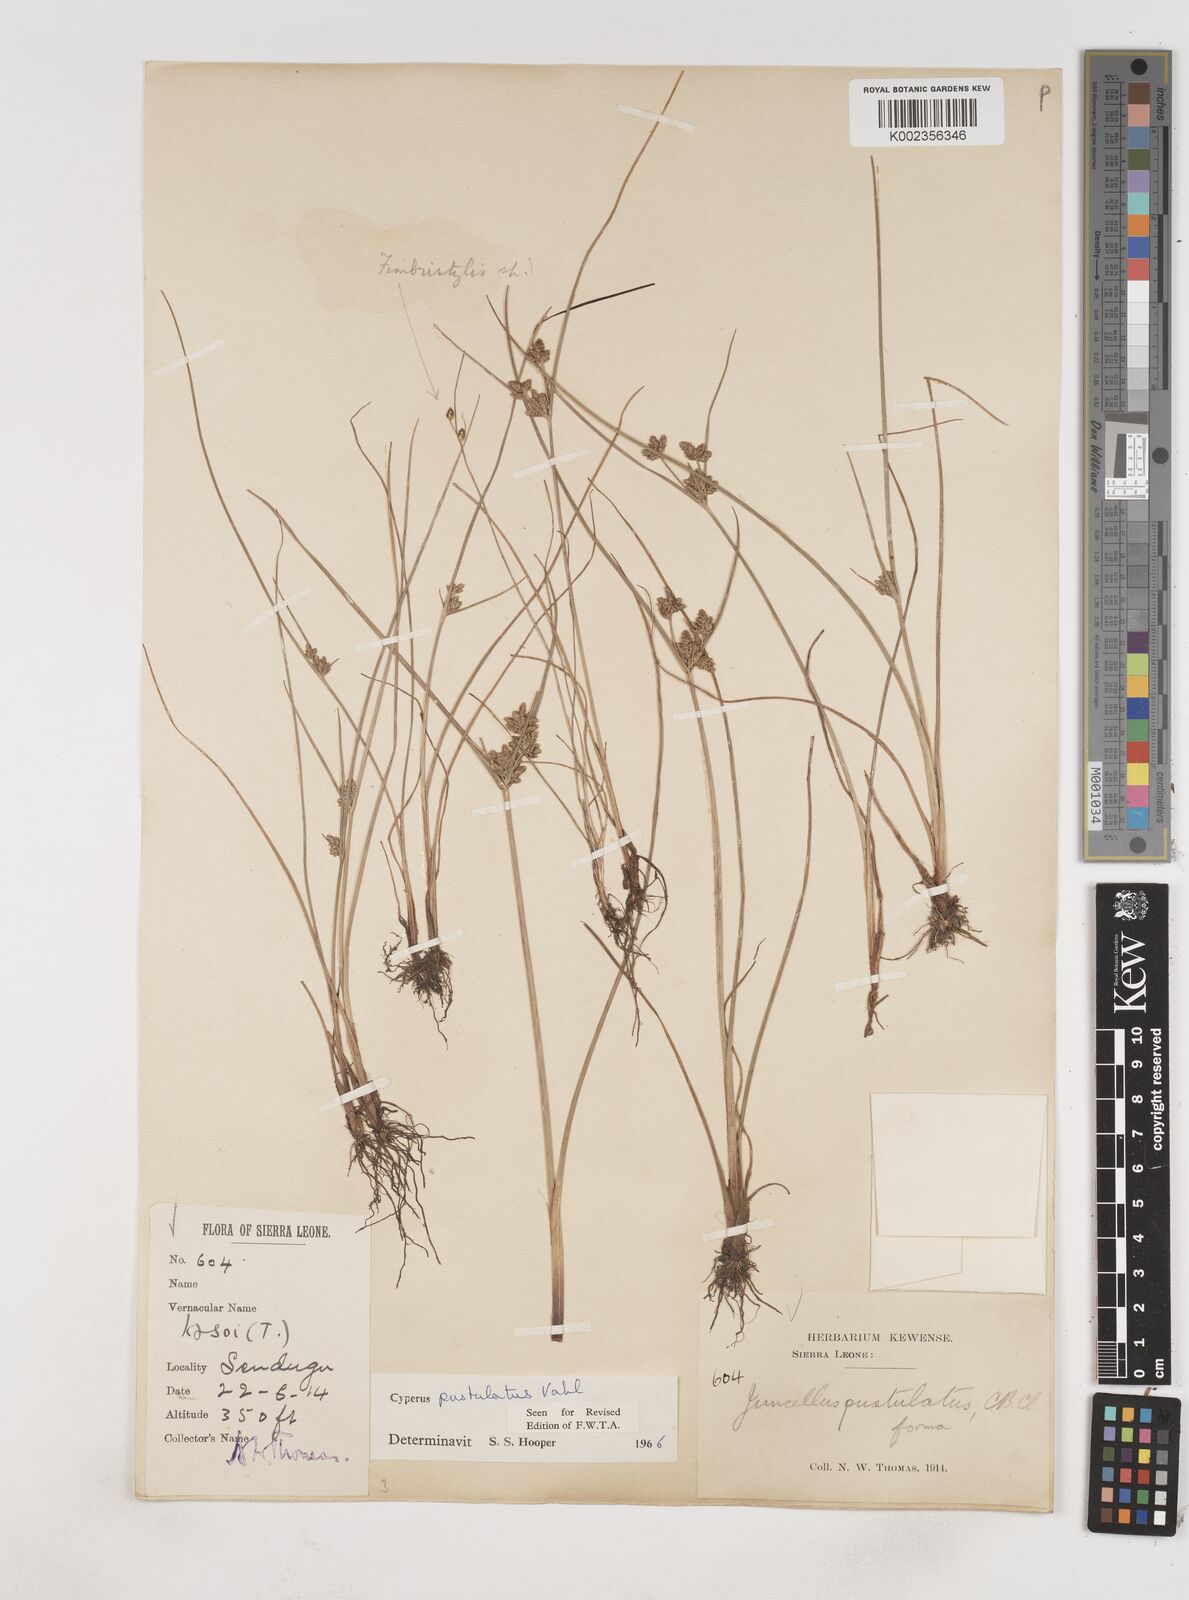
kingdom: Plantae
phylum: Tracheophyta
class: Liliopsida
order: Poales
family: Cyperaceae
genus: Cyperus
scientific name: Cyperus pustulatus
